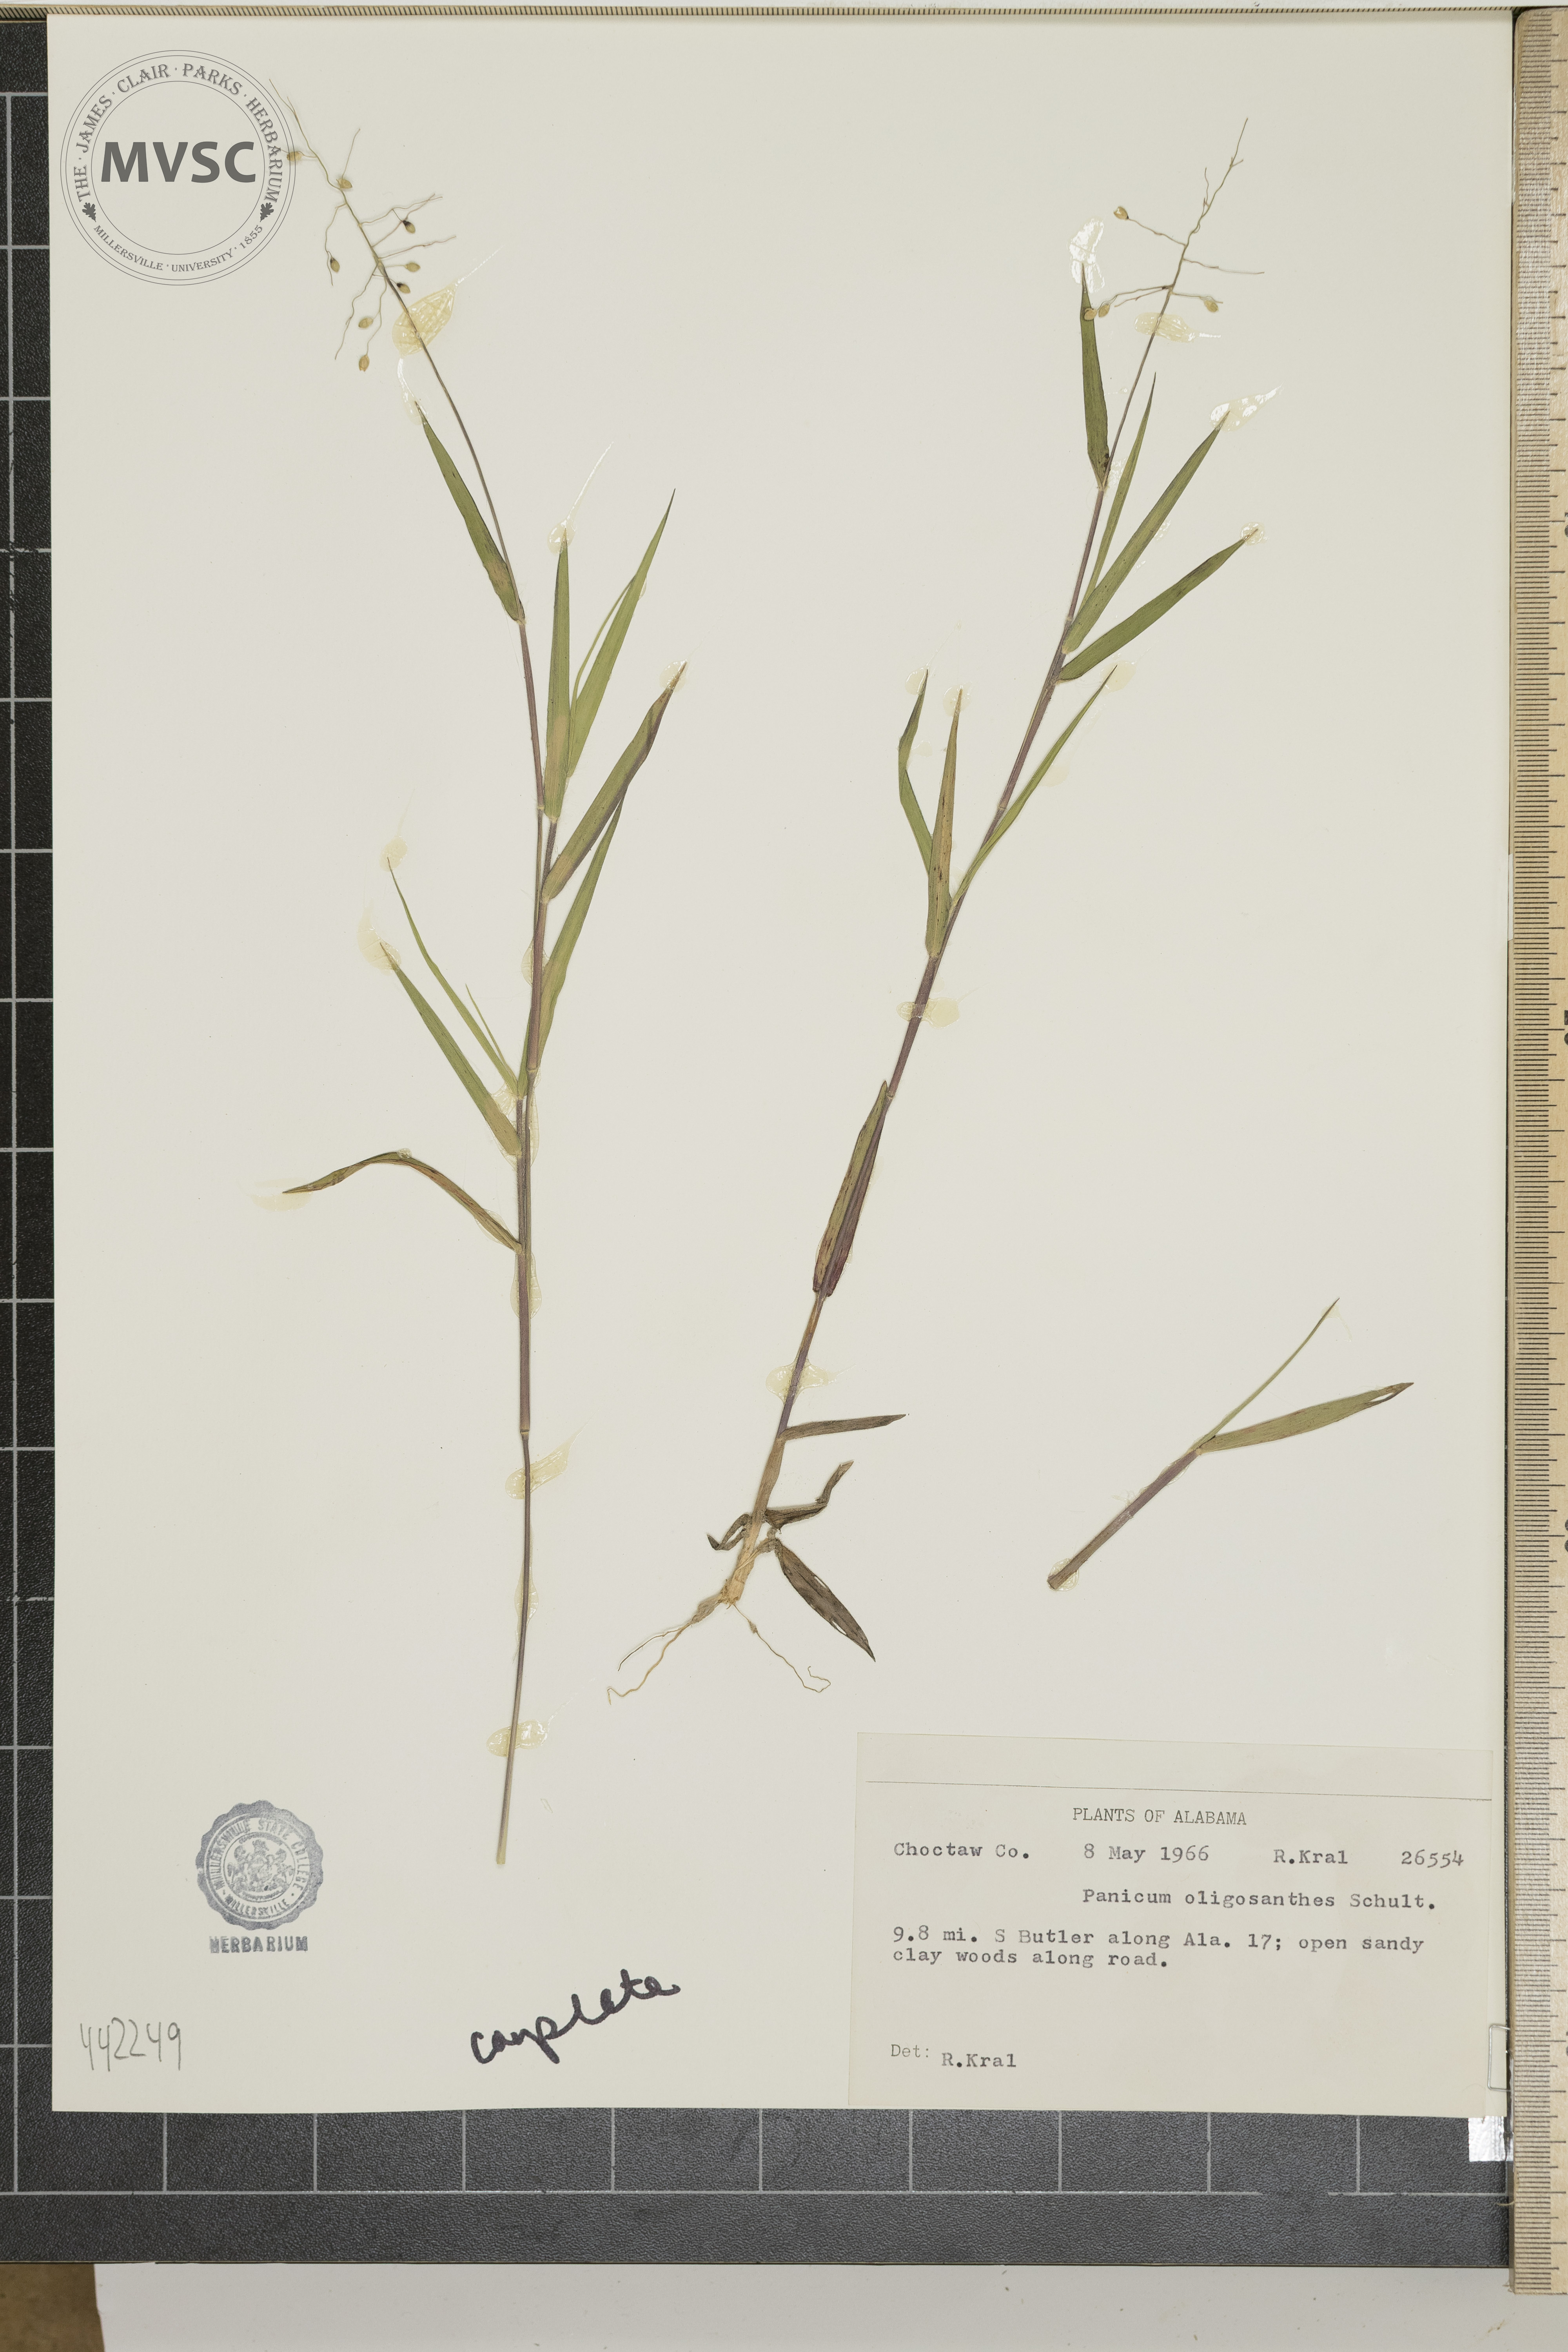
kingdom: Plantae
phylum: Tracheophyta
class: Liliopsida
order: Poales
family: Poaceae
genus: Dichanthelium
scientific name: Dichanthelium oligosanthes
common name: Few-anther obscuregrass
